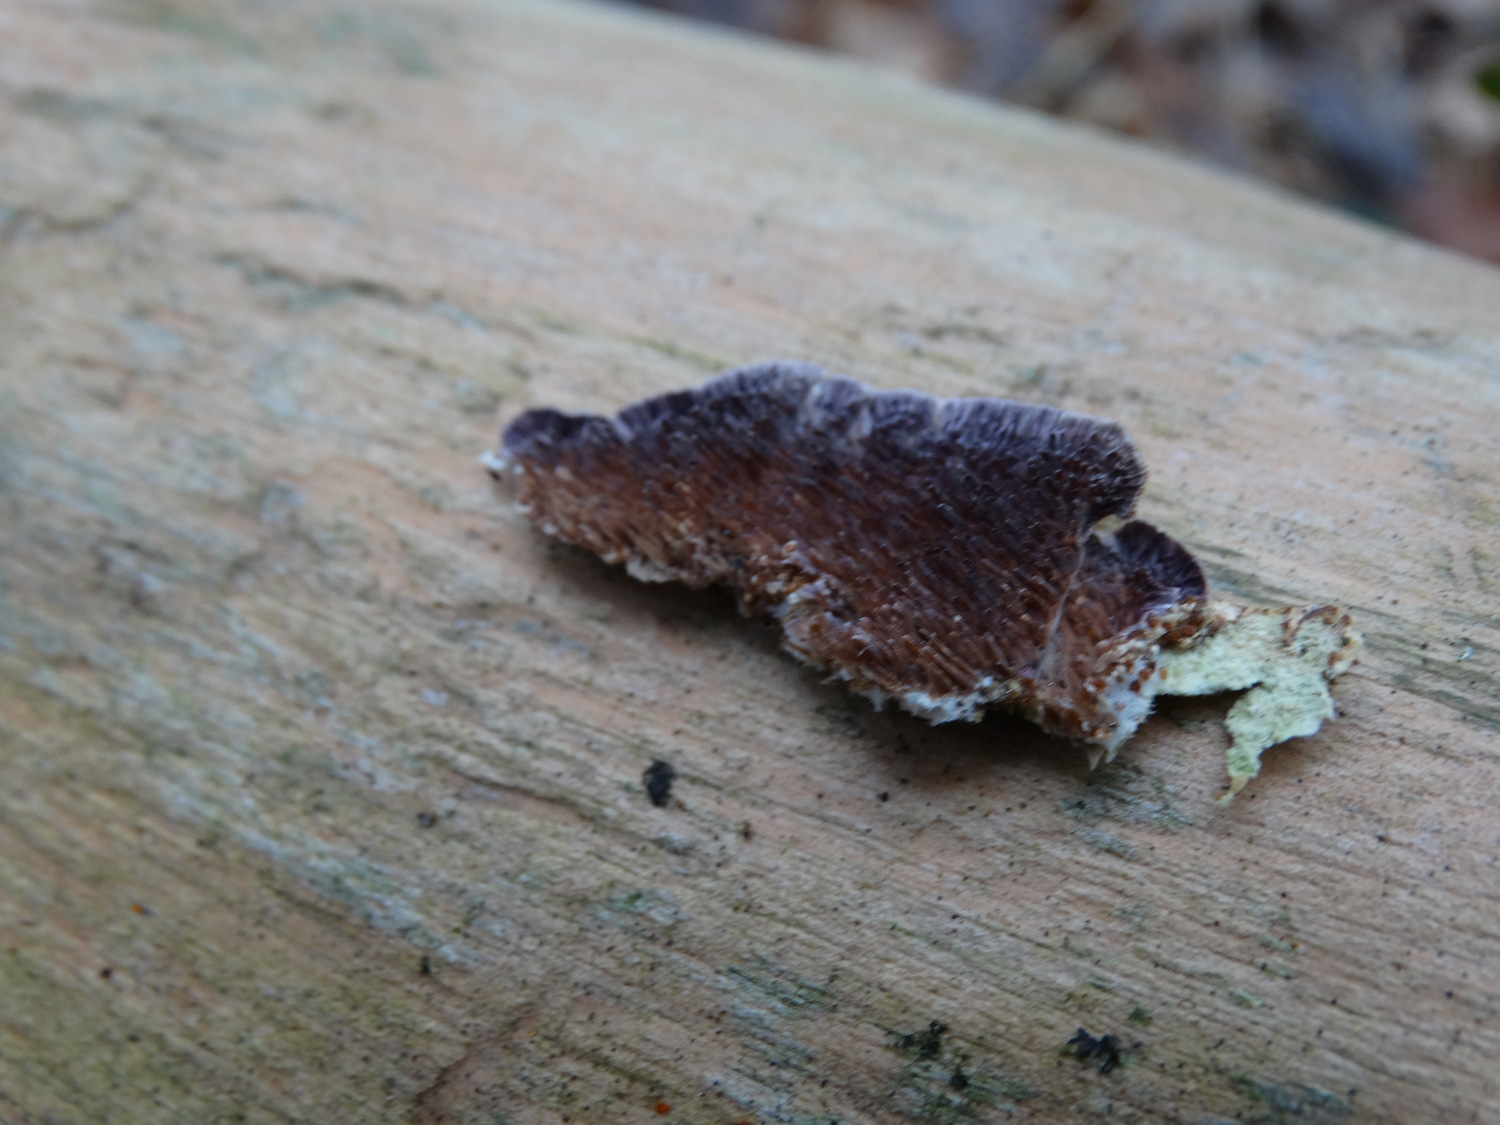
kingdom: Fungi
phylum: Basidiomycota
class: Agaricomycetes
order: Hymenochaetales
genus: Trichaptum
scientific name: Trichaptum fuscoviolaceum
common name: tandet violporesvamp
